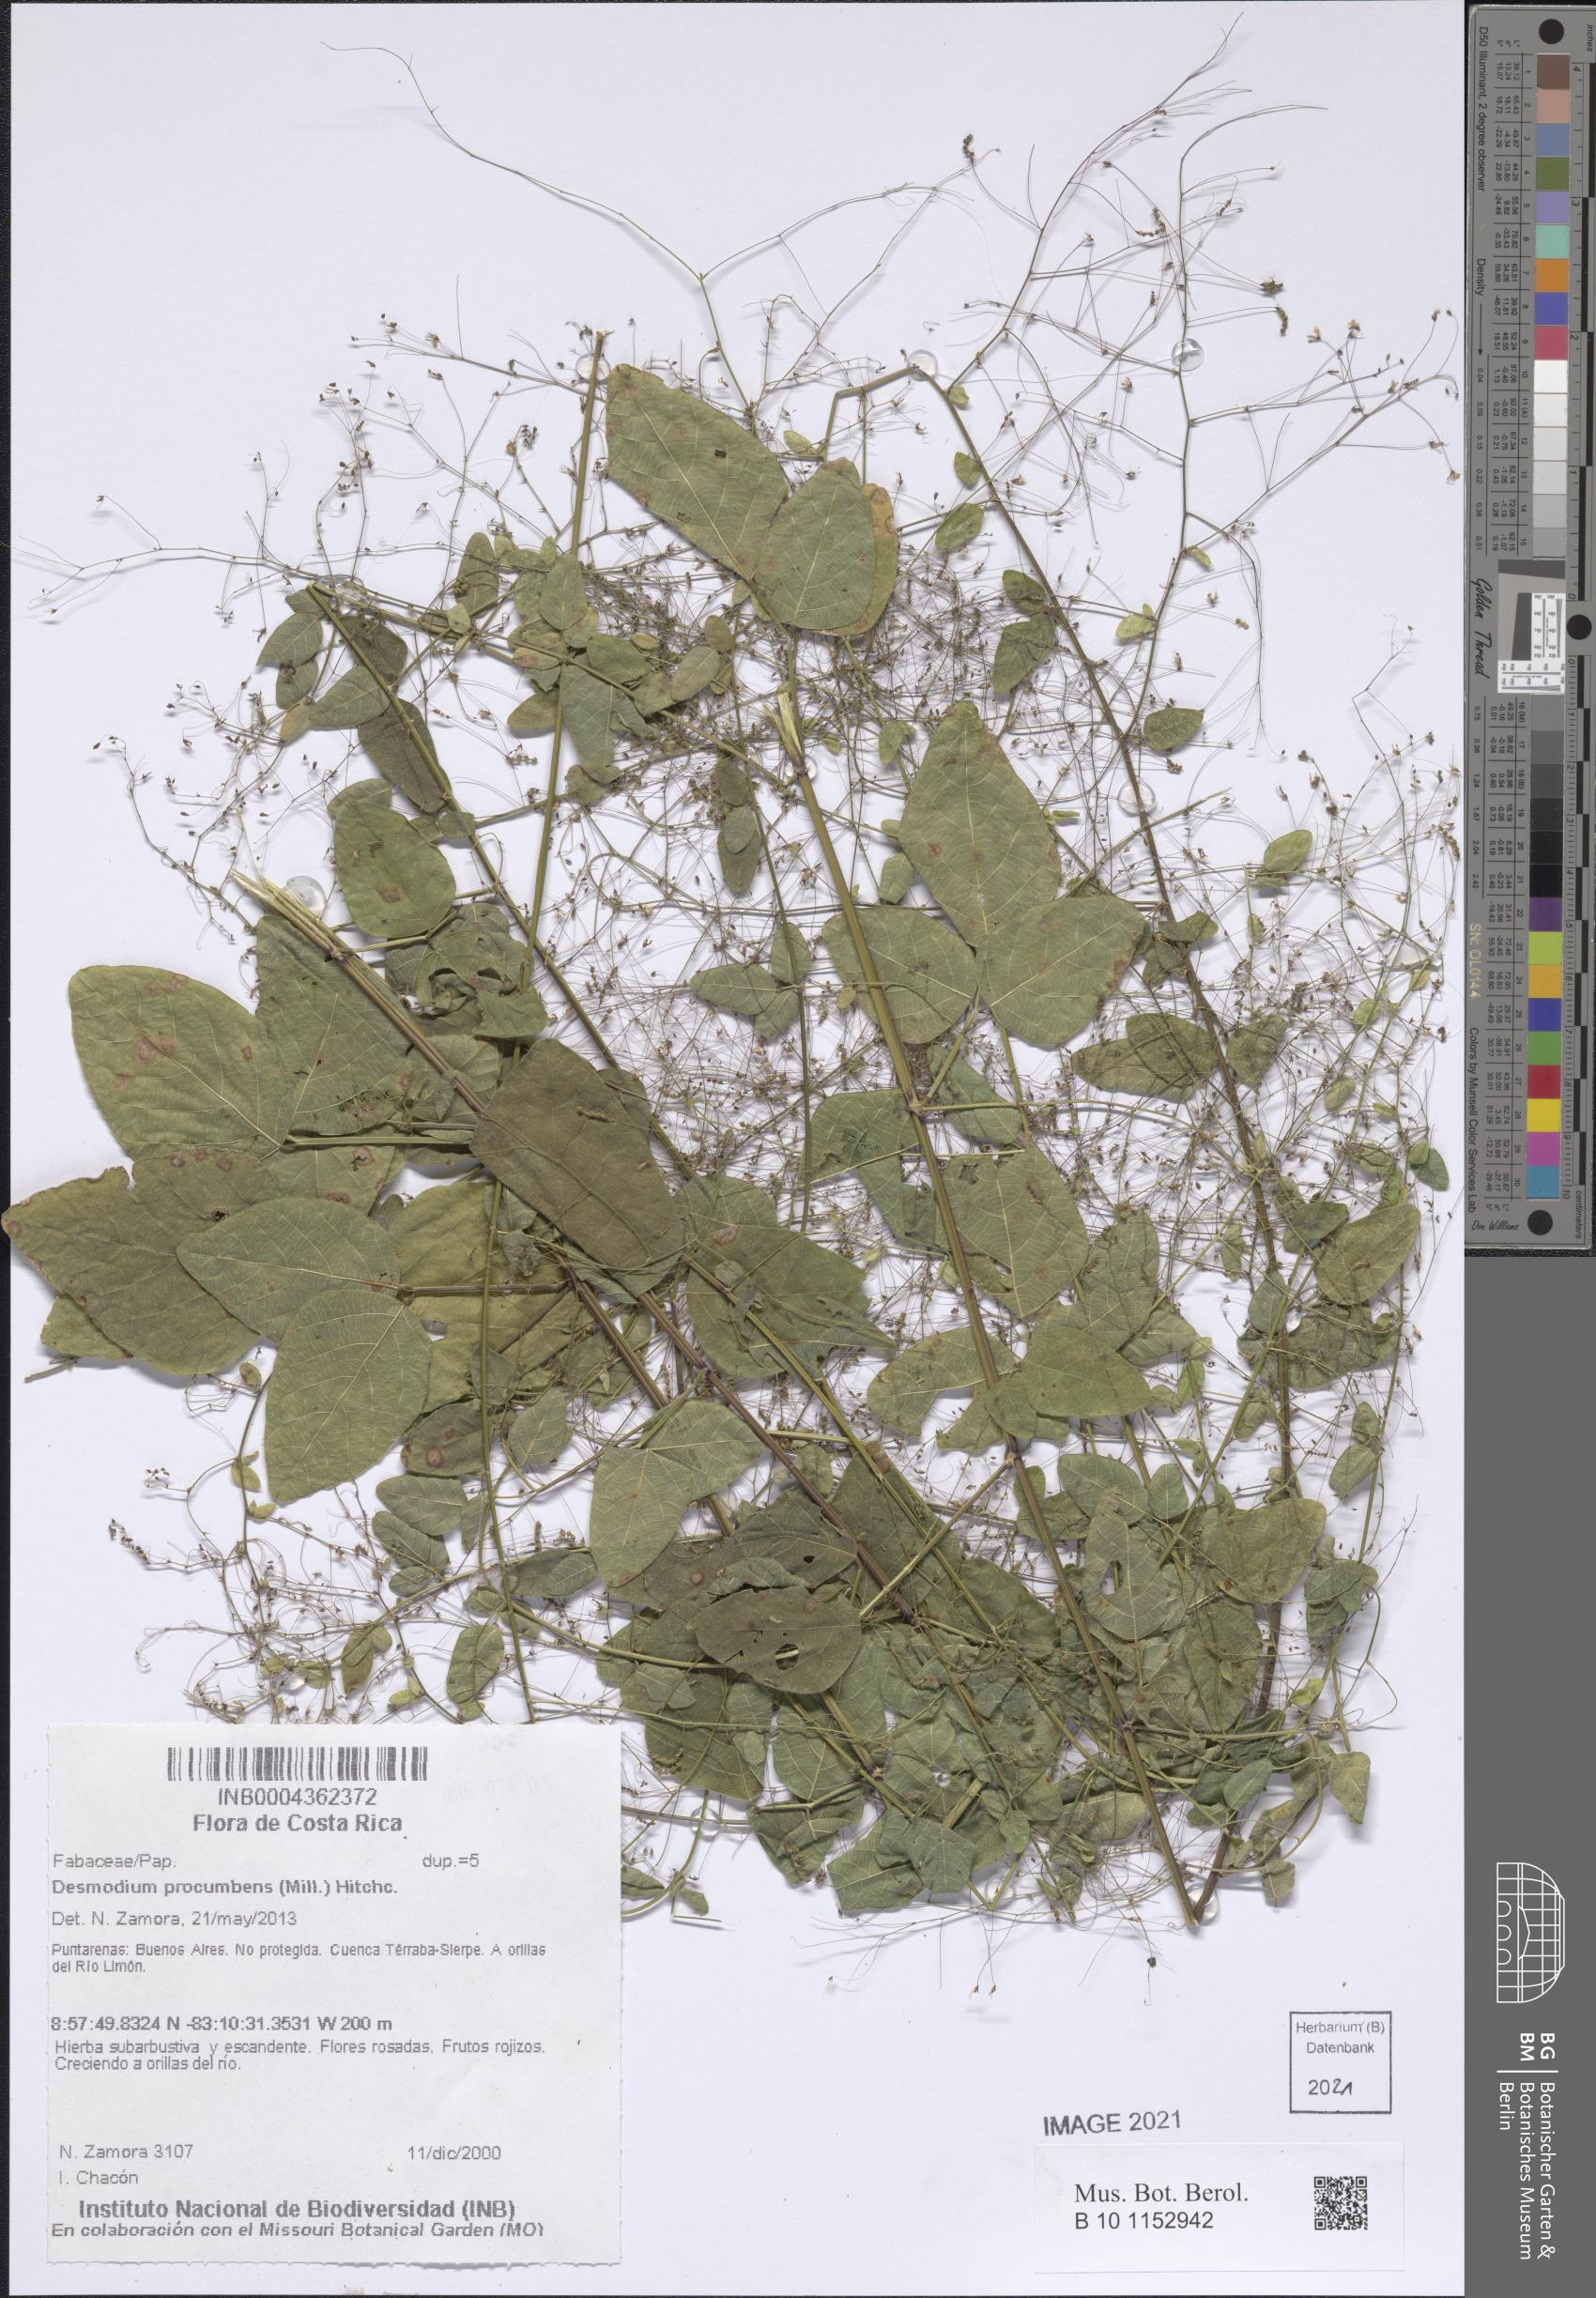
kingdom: Plantae
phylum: Tracheophyta
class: Magnoliopsida
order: Fabales
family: Fabaceae
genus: Desmodium
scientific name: Desmodium procumbens
